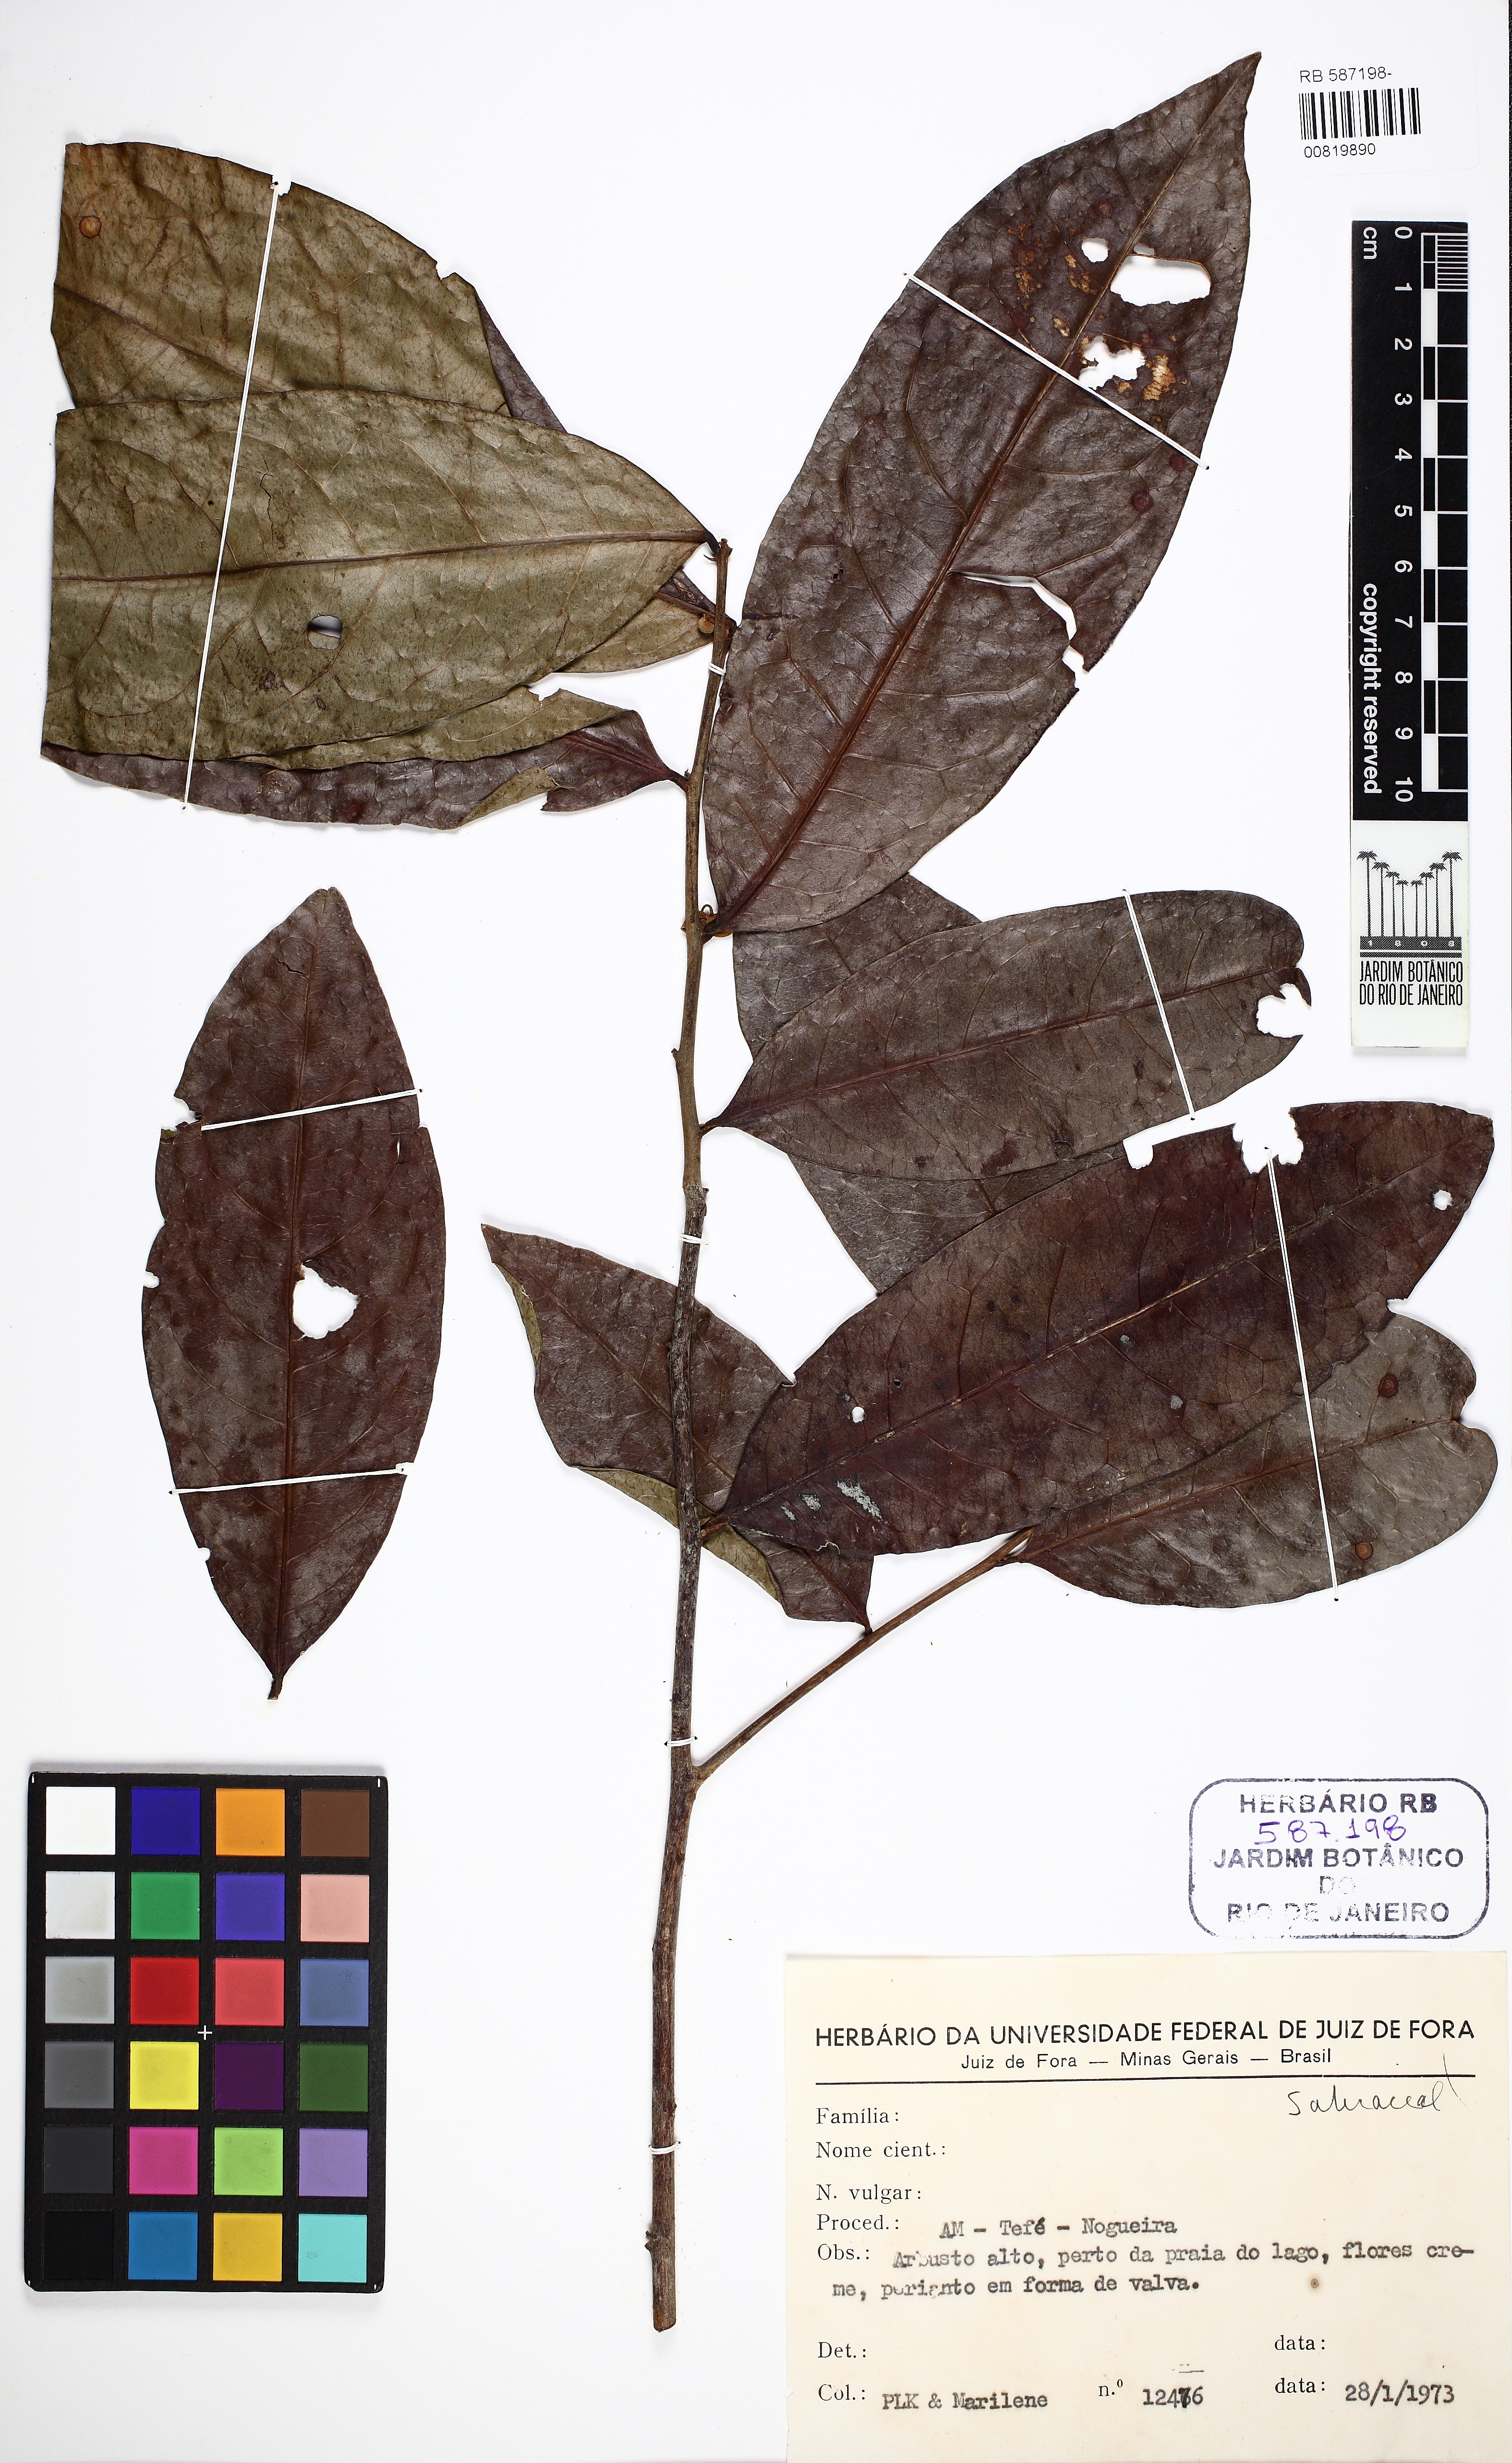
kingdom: Plantae
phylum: Tracheophyta
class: Magnoliopsida
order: Malpighiales
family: Salicaceae
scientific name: Salicaceae
